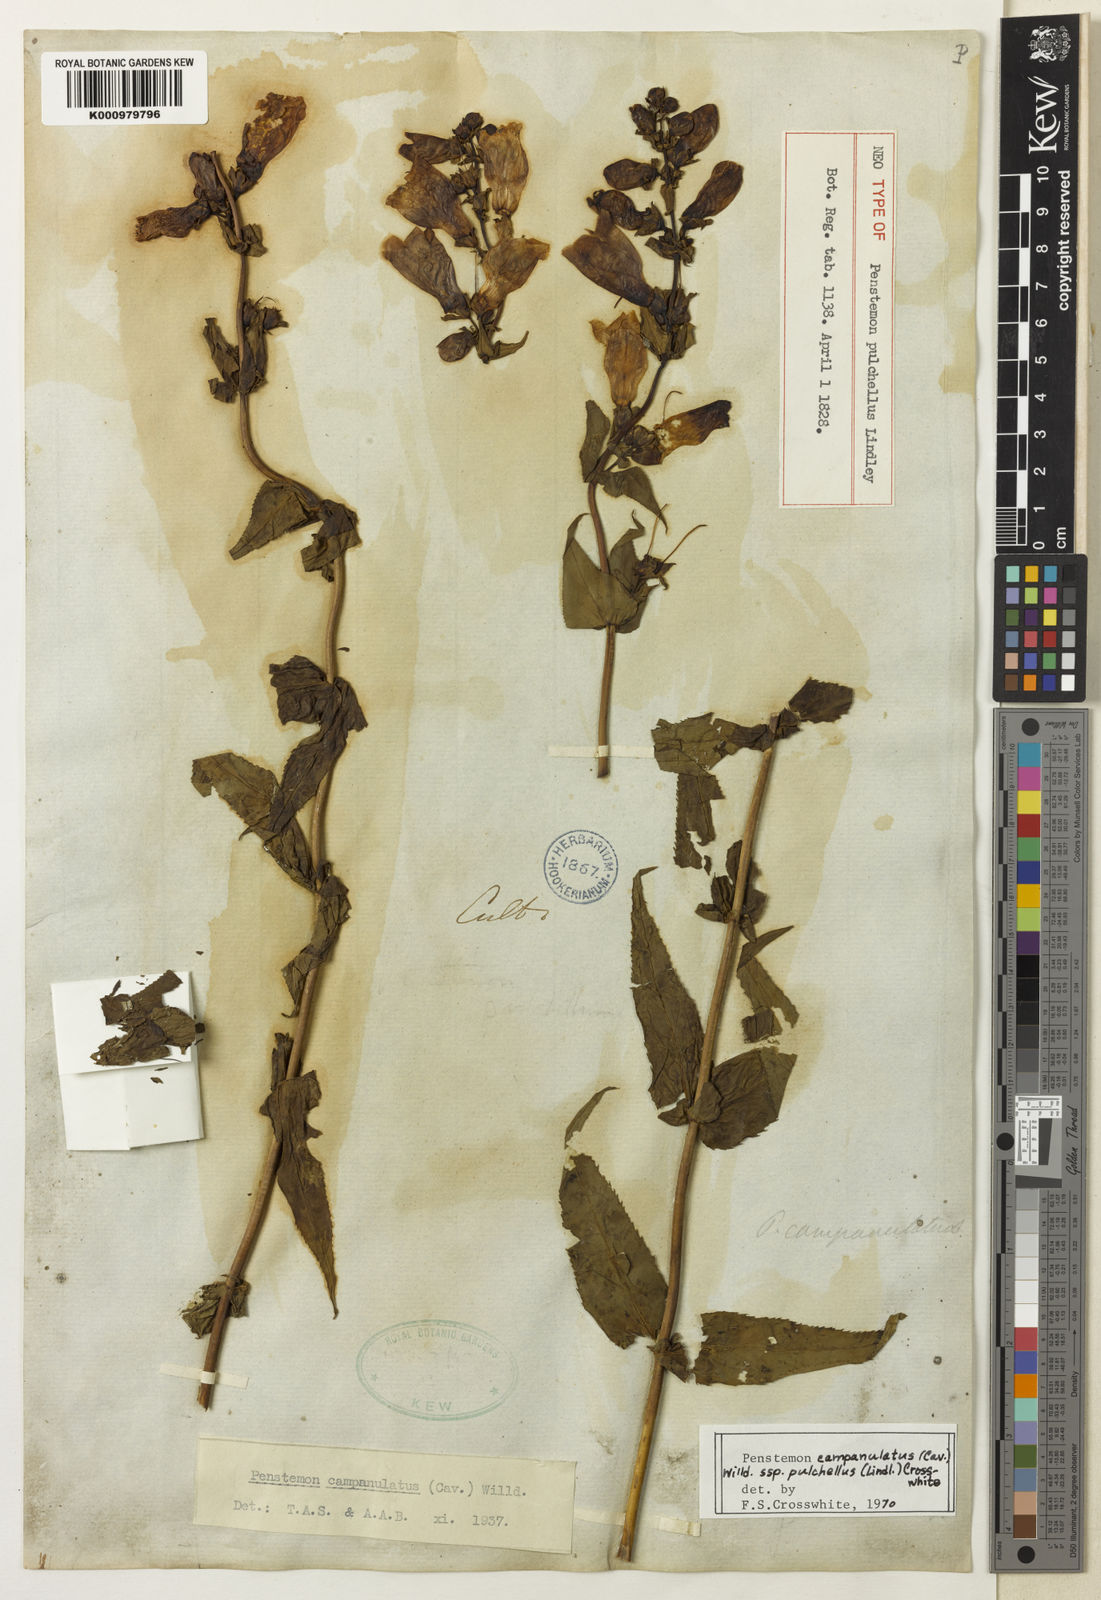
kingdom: Plantae
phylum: Tracheophyta
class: Magnoliopsida
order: Lamiales
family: Plantaginaceae
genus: Penstemon
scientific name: Penstemon campanulatus
